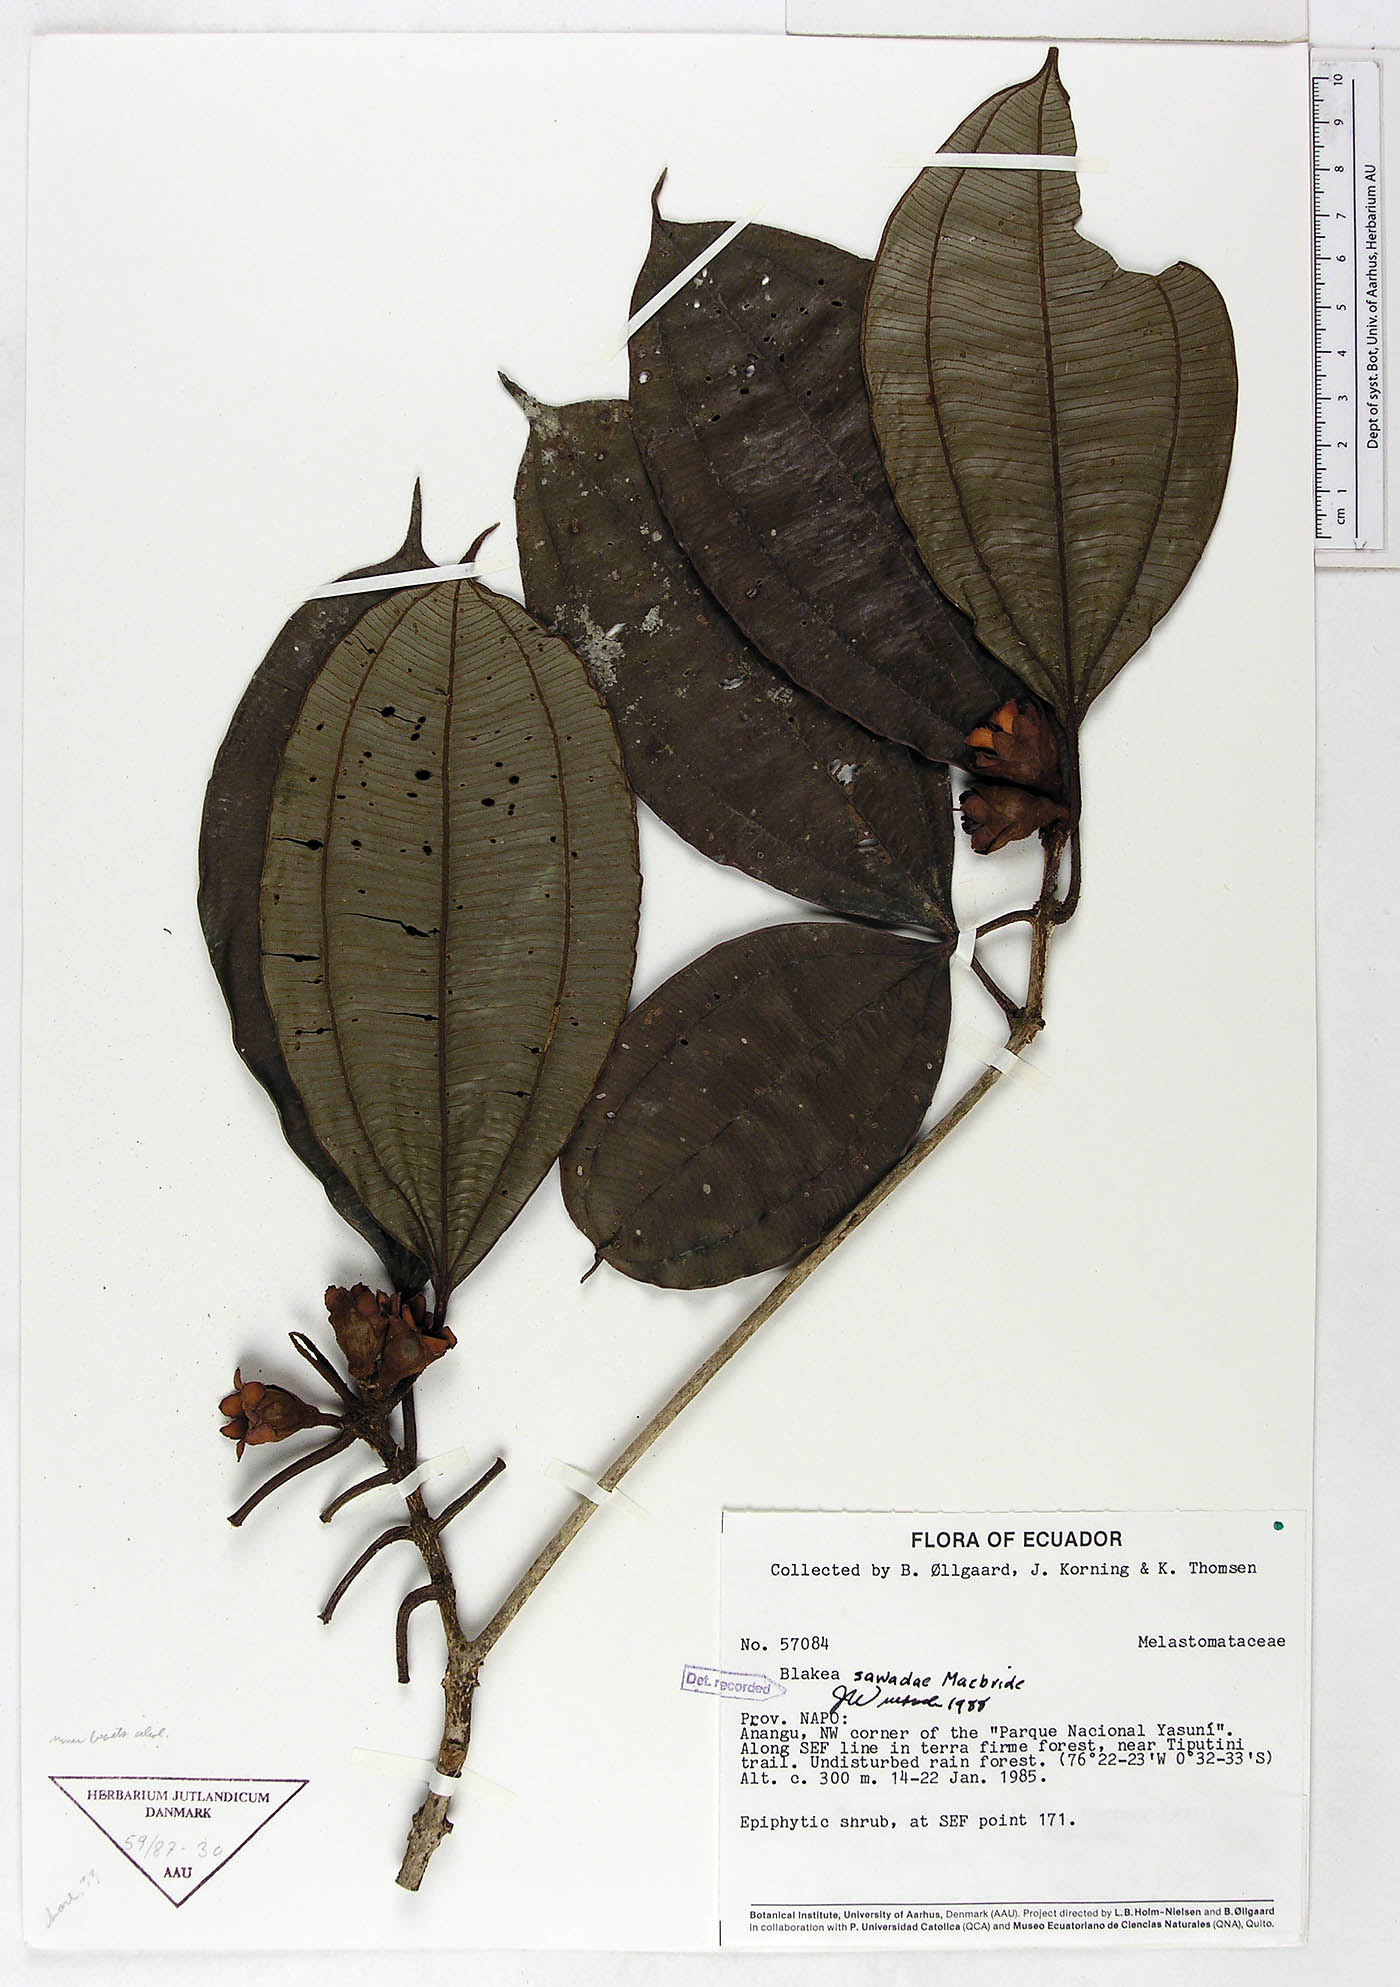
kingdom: Plantae
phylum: Tracheophyta
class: Magnoliopsida
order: Myrtales
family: Melastomataceae
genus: Blakea
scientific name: Blakea sawadae
